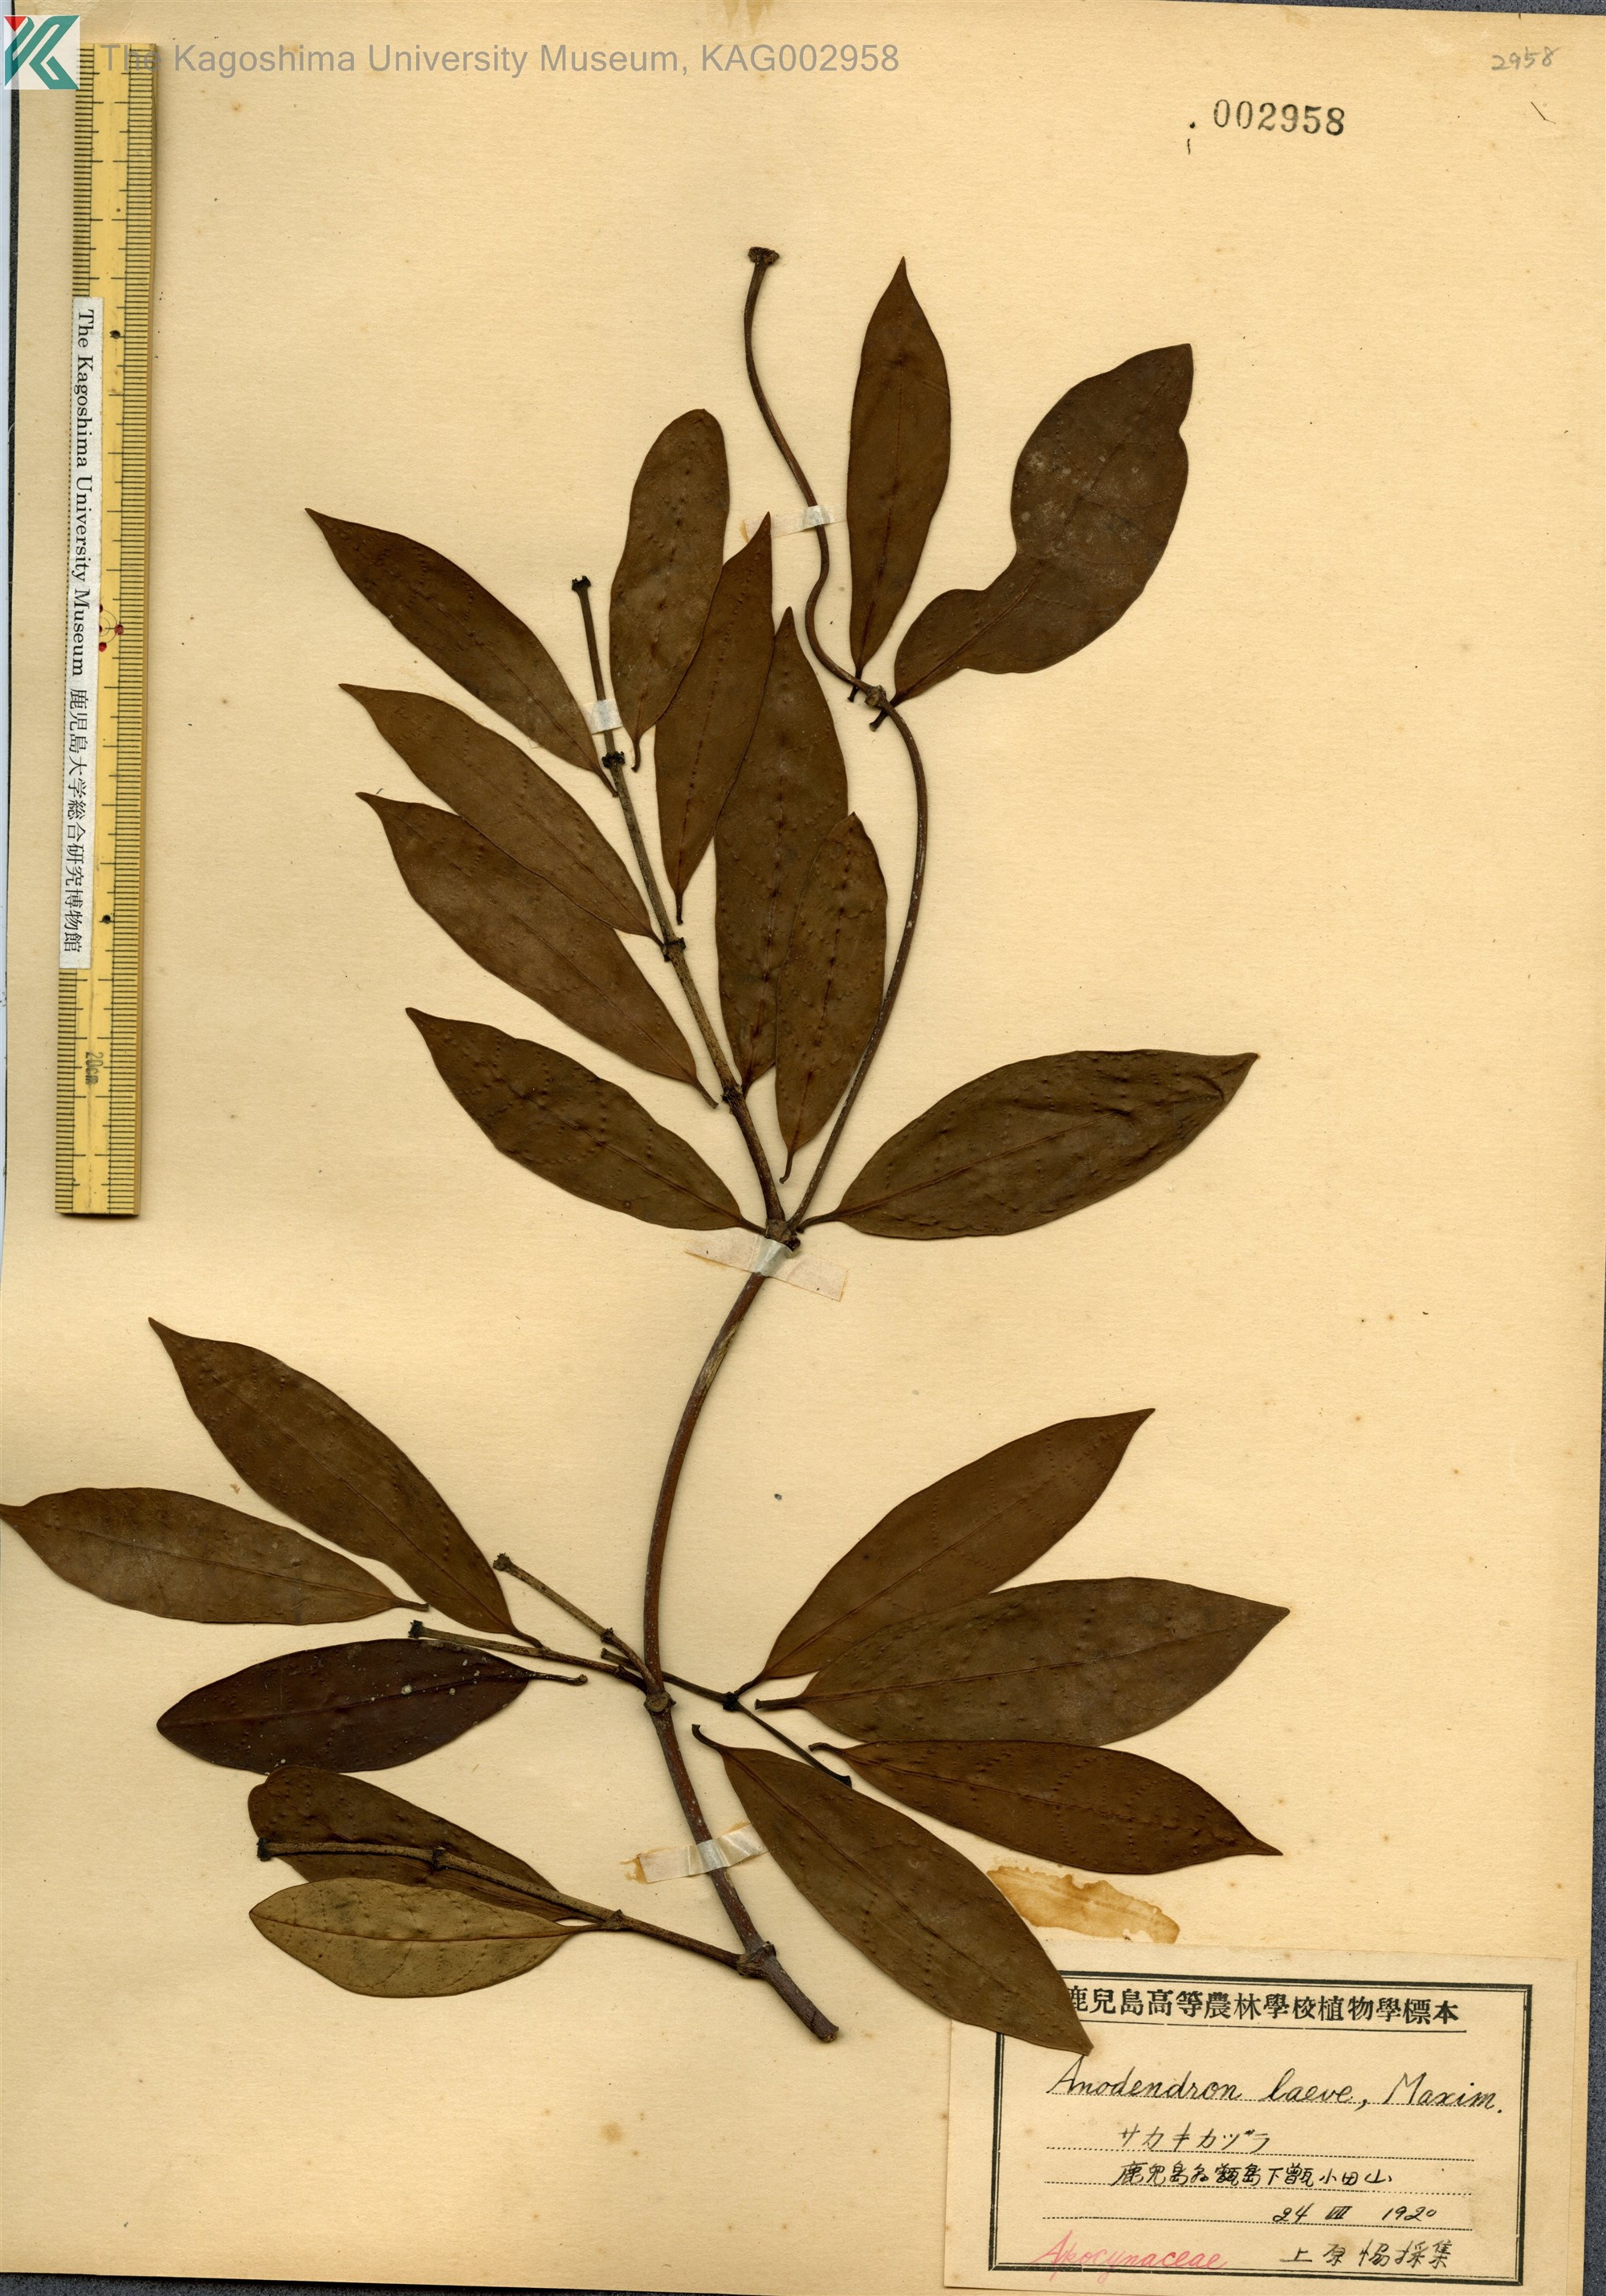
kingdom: Plantae
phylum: Tracheophyta
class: Magnoliopsida
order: Gentianales
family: Apocynaceae
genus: Anodendron
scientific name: Anodendron affine
